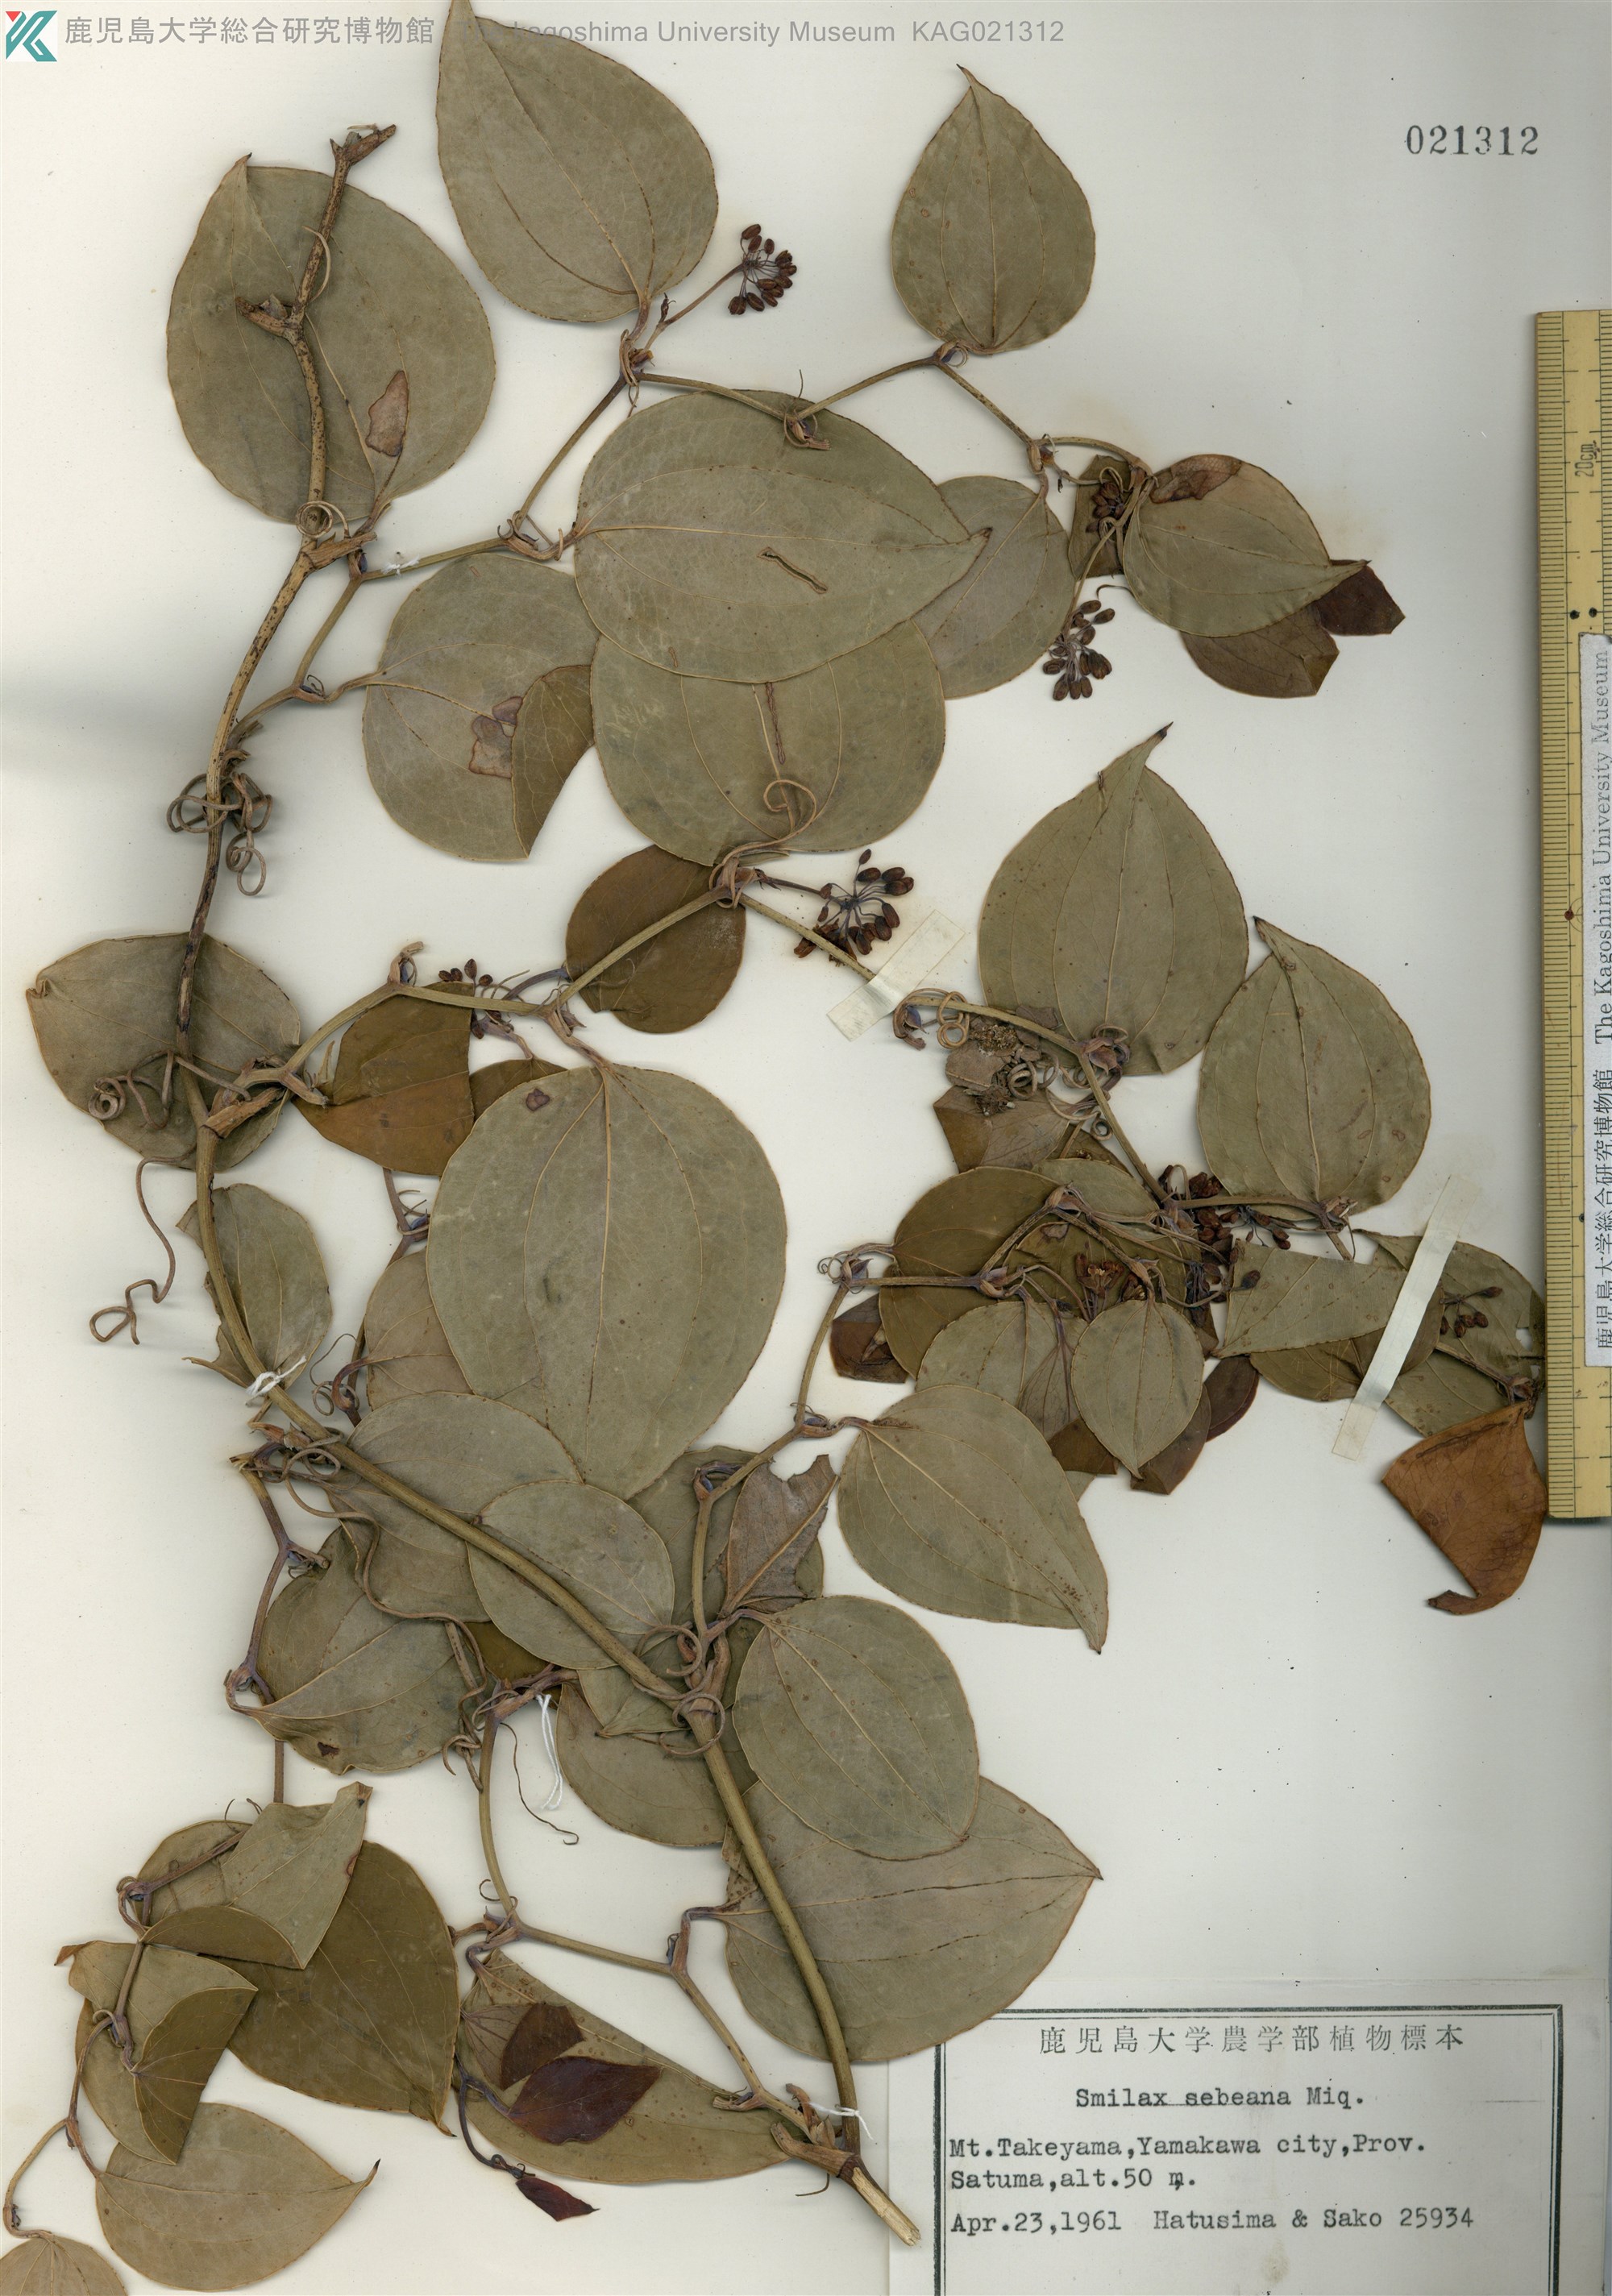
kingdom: Plantae
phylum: Tracheophyta
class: Liliopsida
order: Liliales
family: Smilacaceae
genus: Smilax
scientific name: Smilax sebeana
